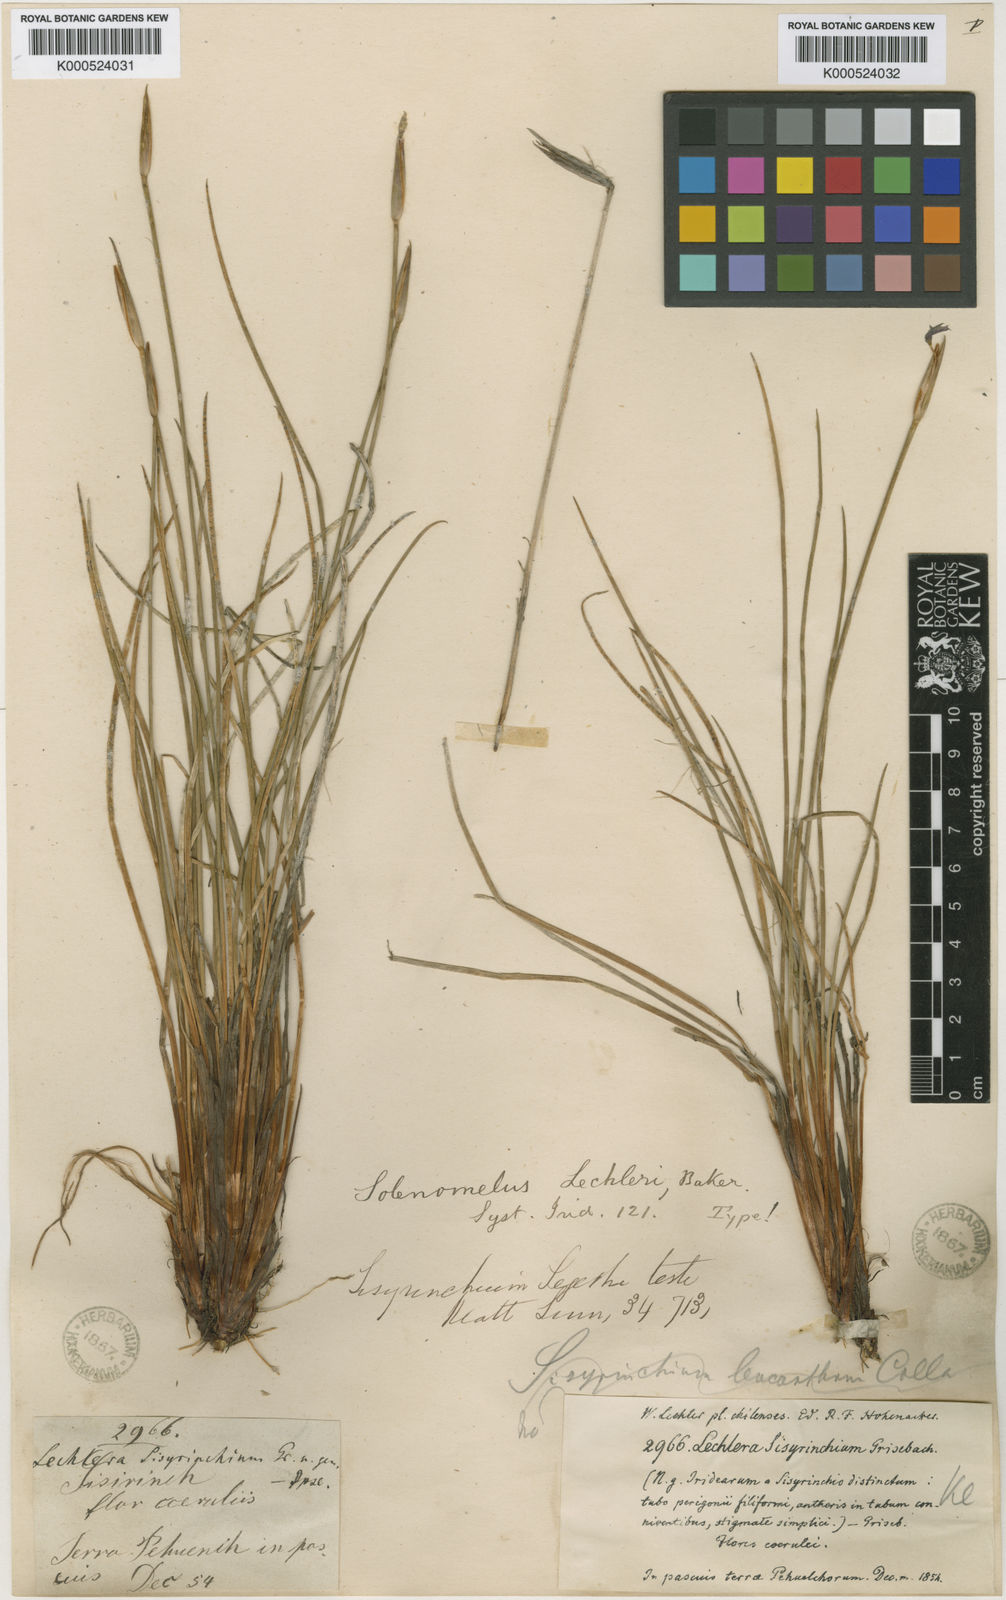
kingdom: Plantae
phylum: Tracheophyta
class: Liliopsida
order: Asparagales
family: Iridaceae
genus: Solenomelus
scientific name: Solenomelus segethi
